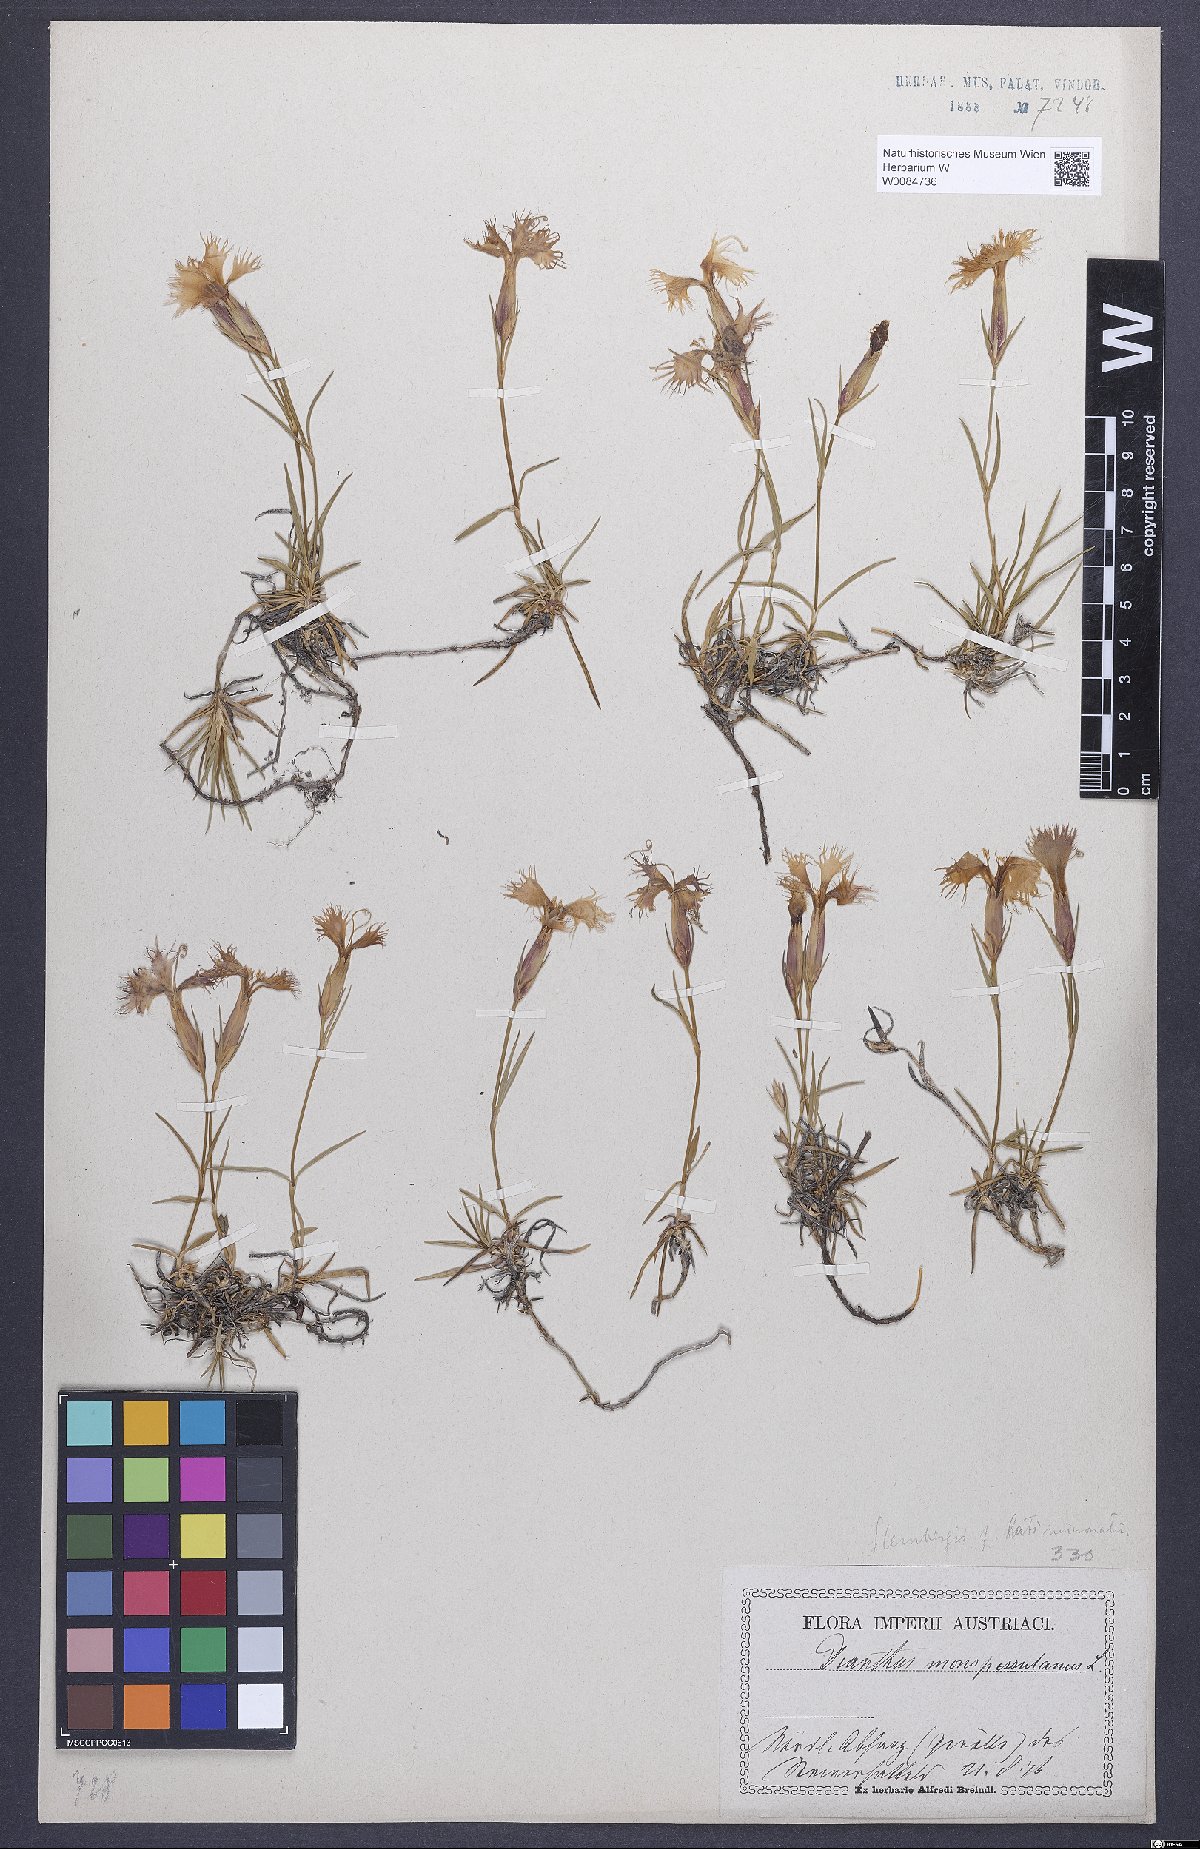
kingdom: Plantae
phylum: Tracheophyta
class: Magnoliopsida
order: Caryophyllales
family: Caryophyllaceae
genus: Dianthus
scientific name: Dianthus hyssopifolius
